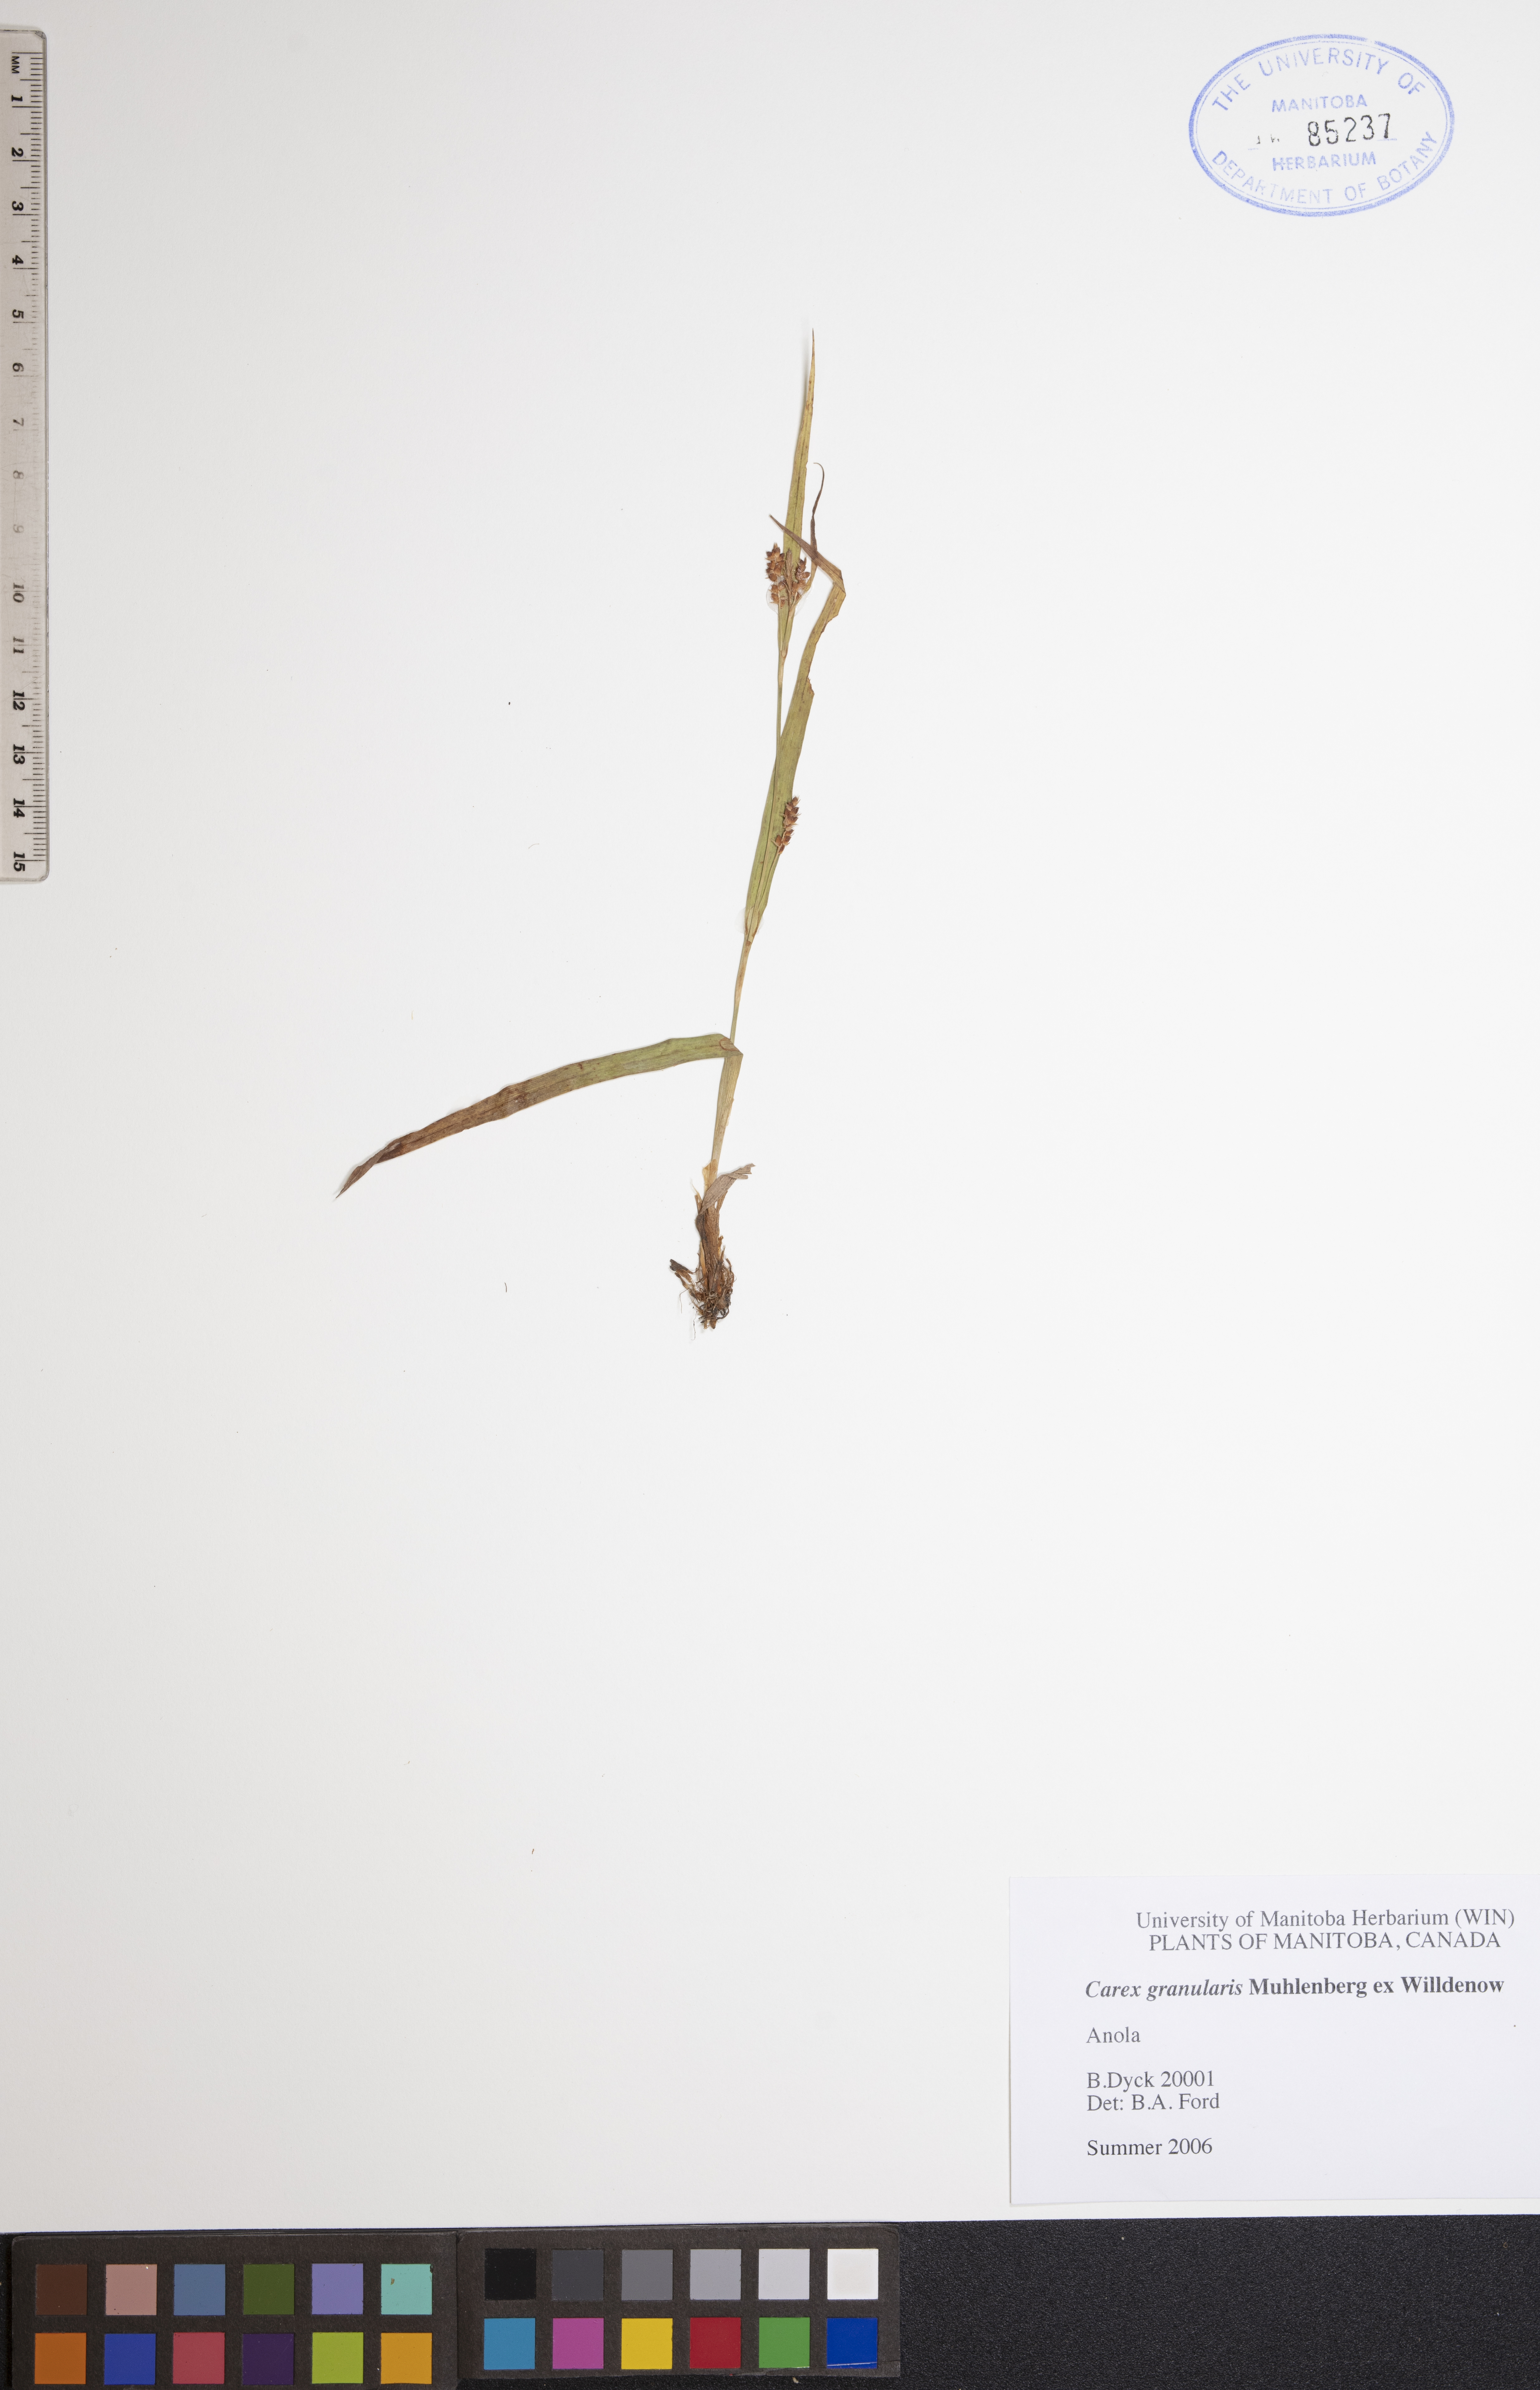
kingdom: Plantae
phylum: Tracheophyta
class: Liliopsida
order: Poales
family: Cyperaceae
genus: Carex
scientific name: Carex granularis
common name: Granular sedge
